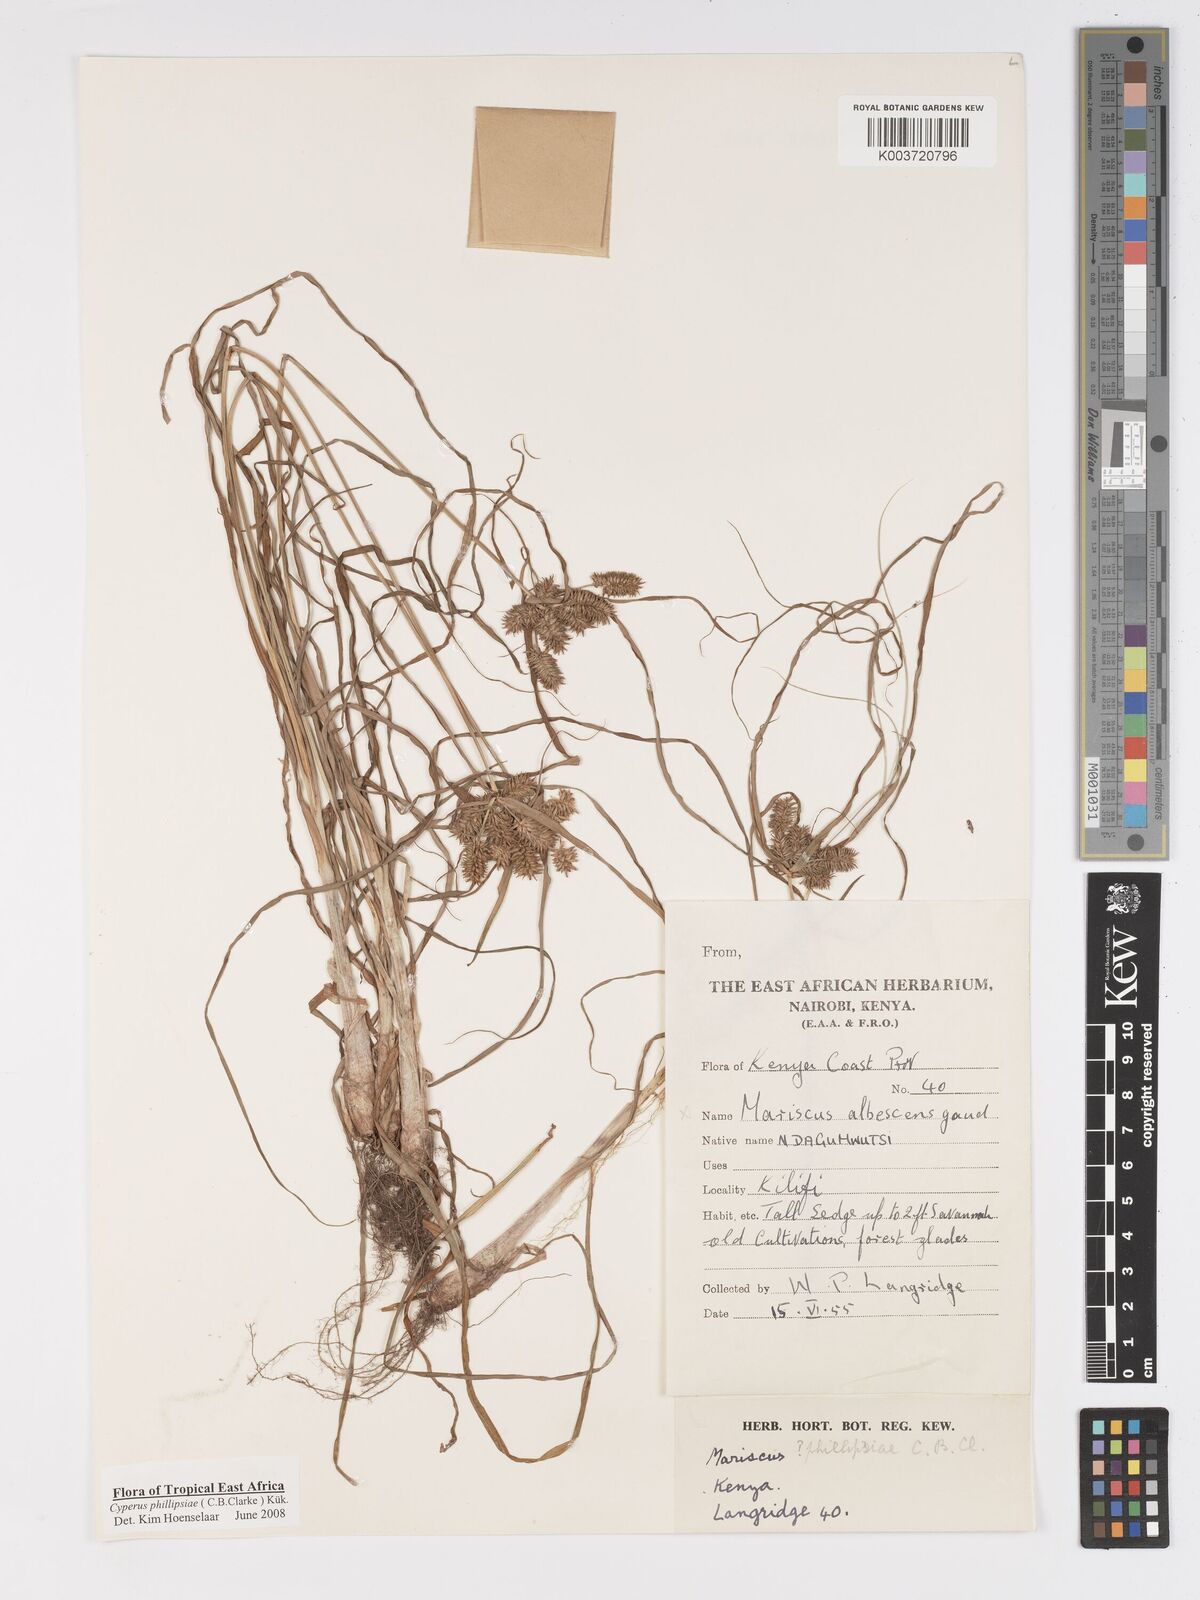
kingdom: Plantae
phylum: Tracheophyta
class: Liliopsida
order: Poales
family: Cyperaceae
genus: Cyperus
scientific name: Cyperus phillipsiae
